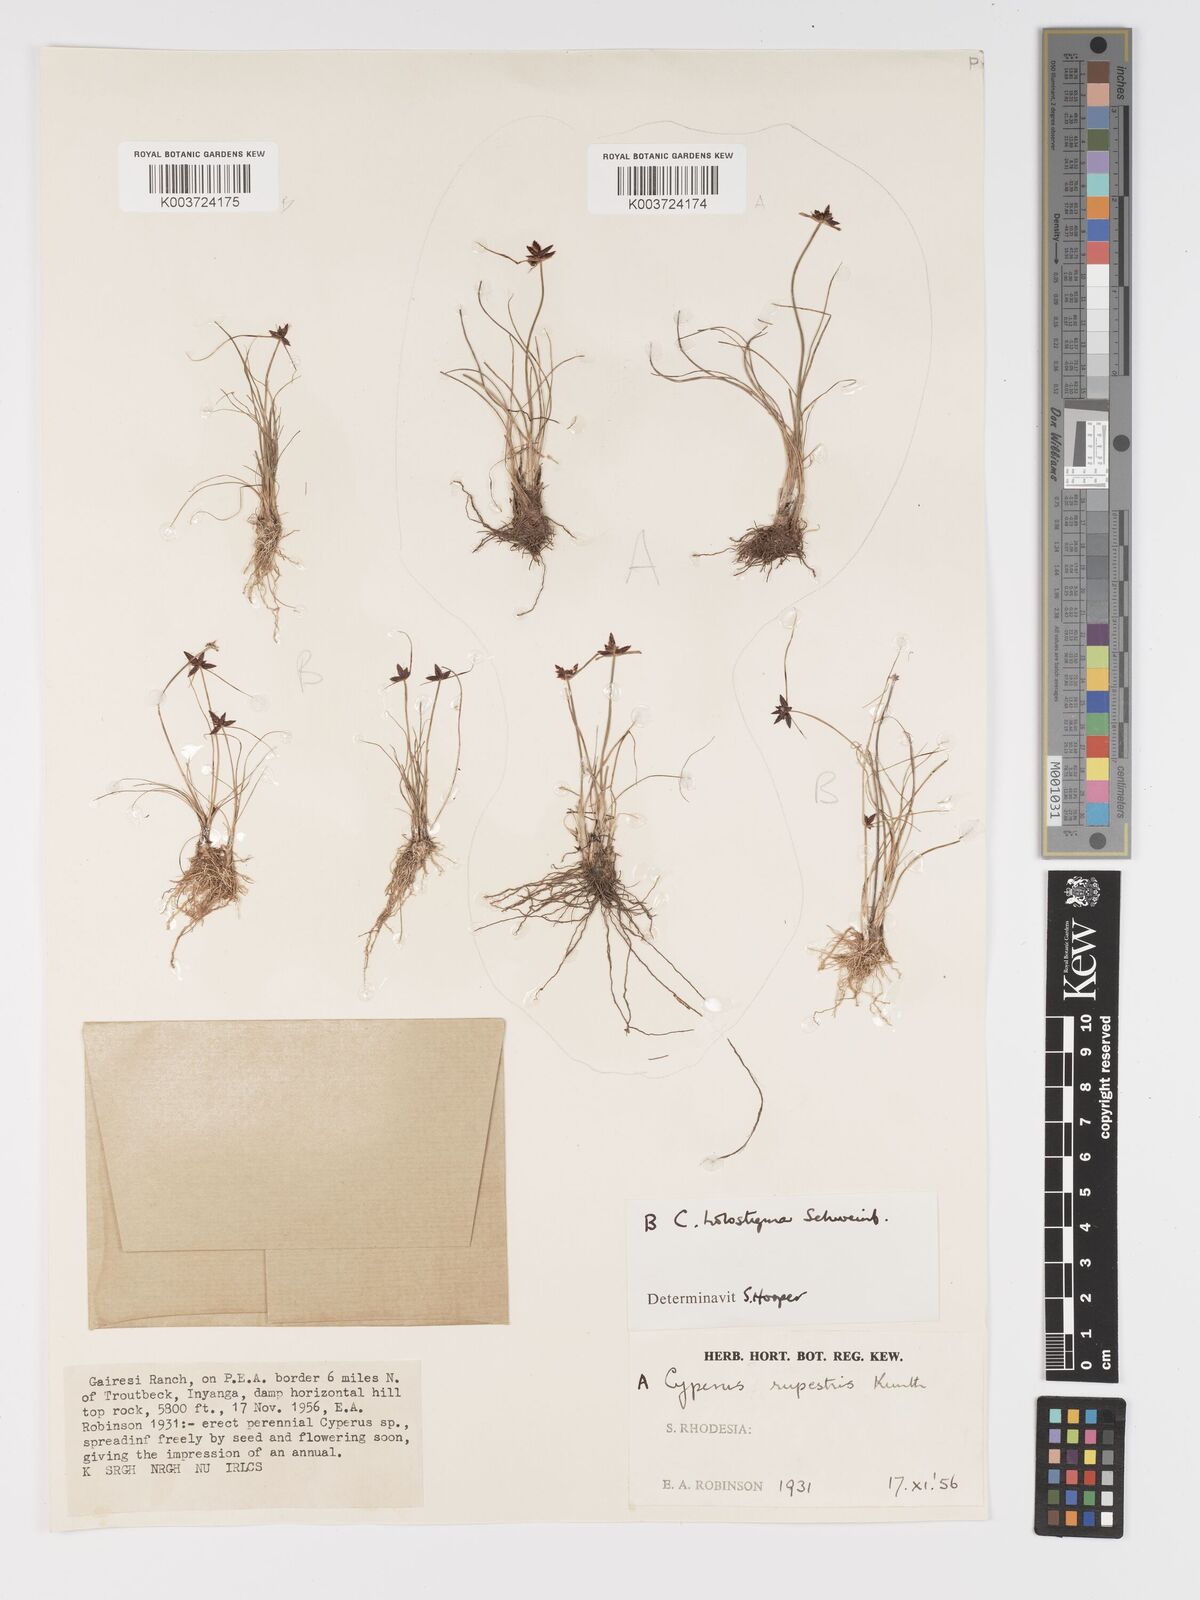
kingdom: Plantae
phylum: Tracheophyta
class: Liliopsida
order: Poales
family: Cyperaceae
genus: Cyperus
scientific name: Cyperus rupestris
